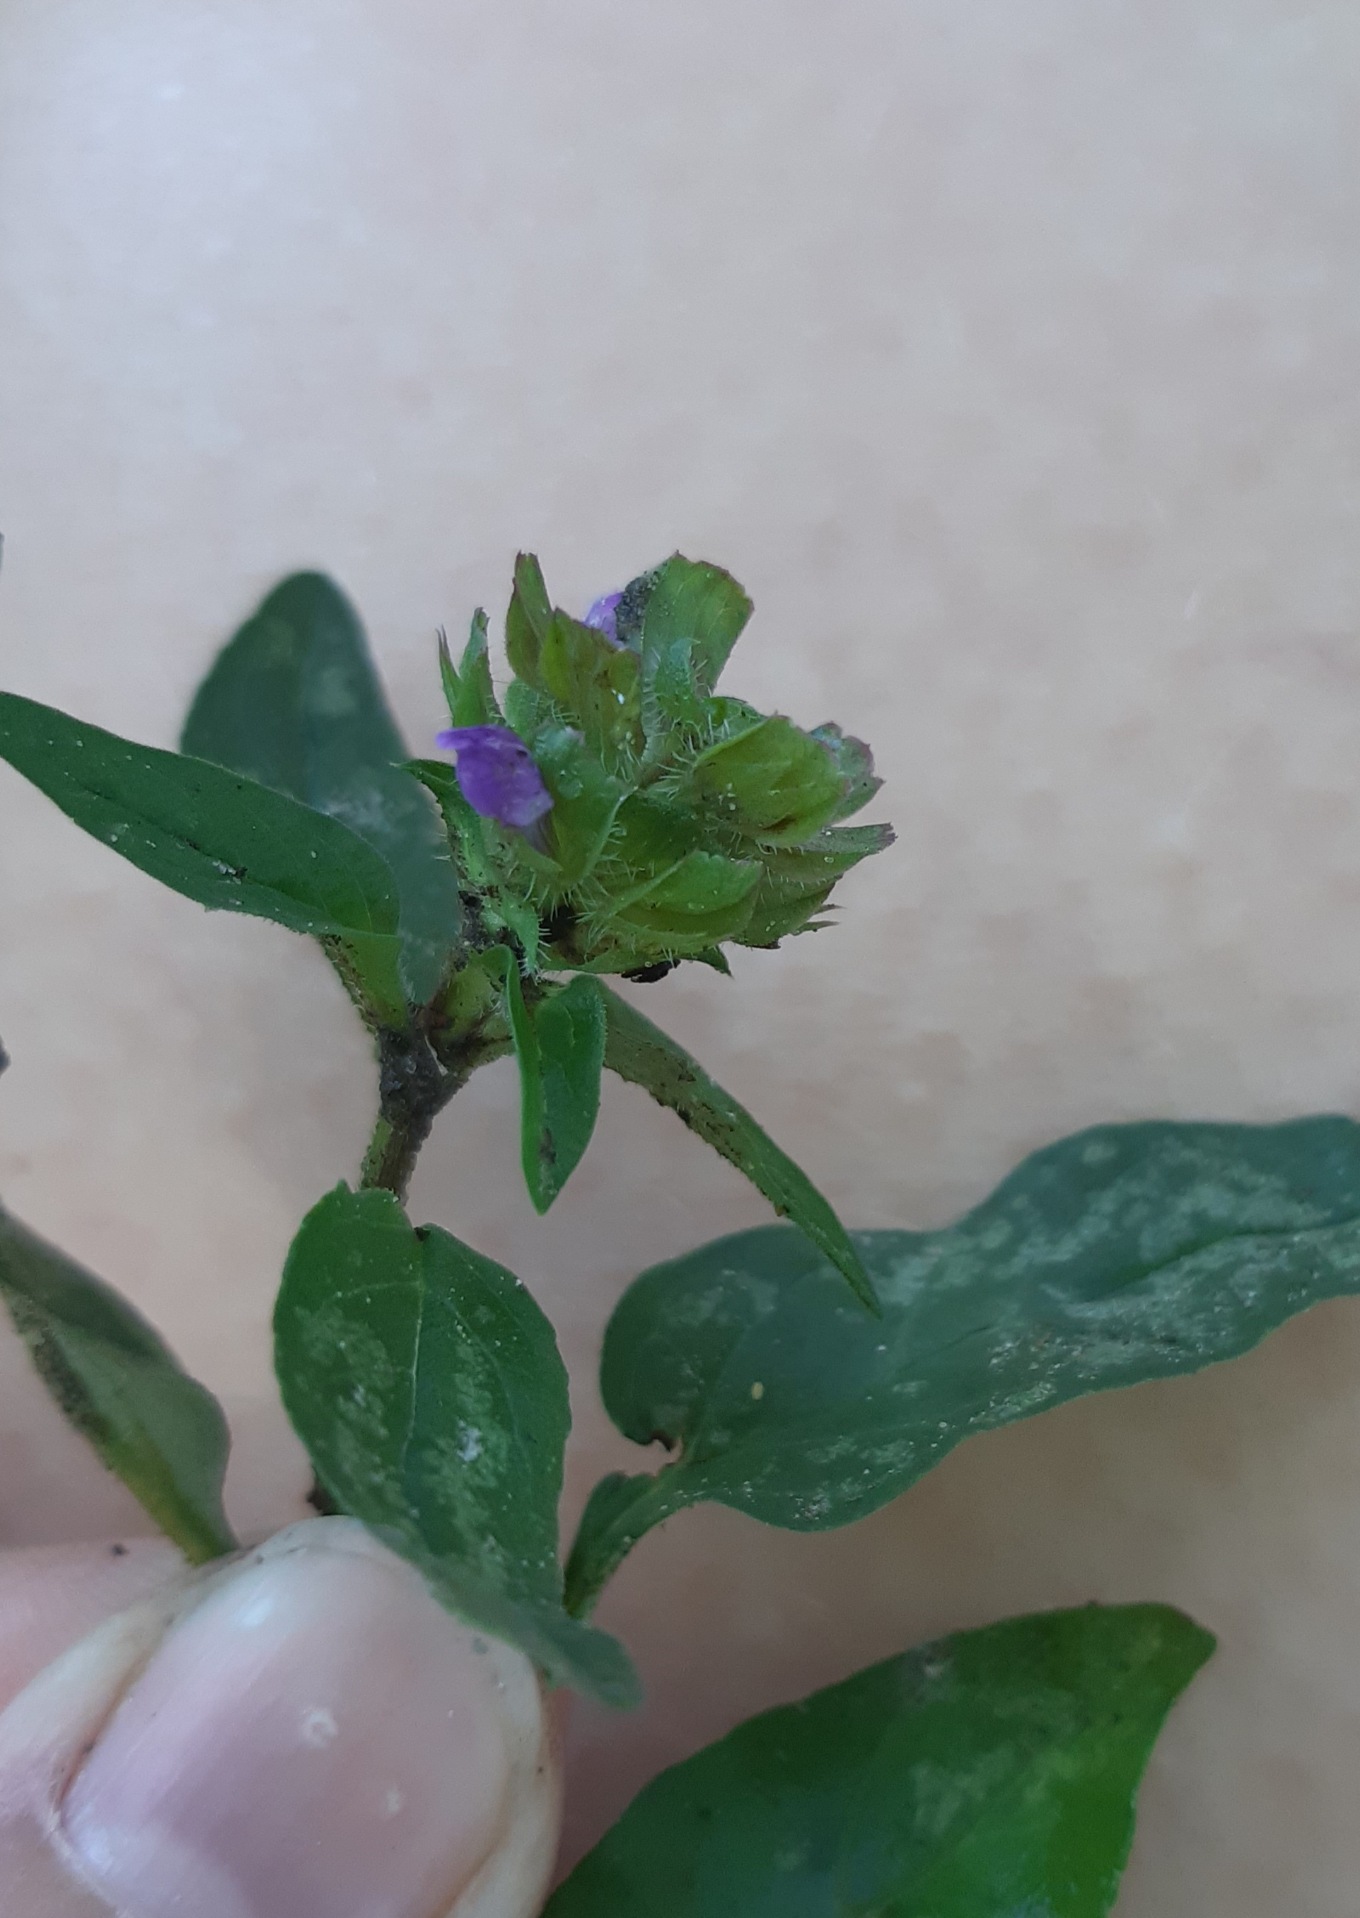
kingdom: Plantae
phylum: Tracheophyta
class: Magnoliopsida
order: Lamiales
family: Lamiaceae
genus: Prunella
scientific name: Prunella vulgaris
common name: Almindelig brunelle
